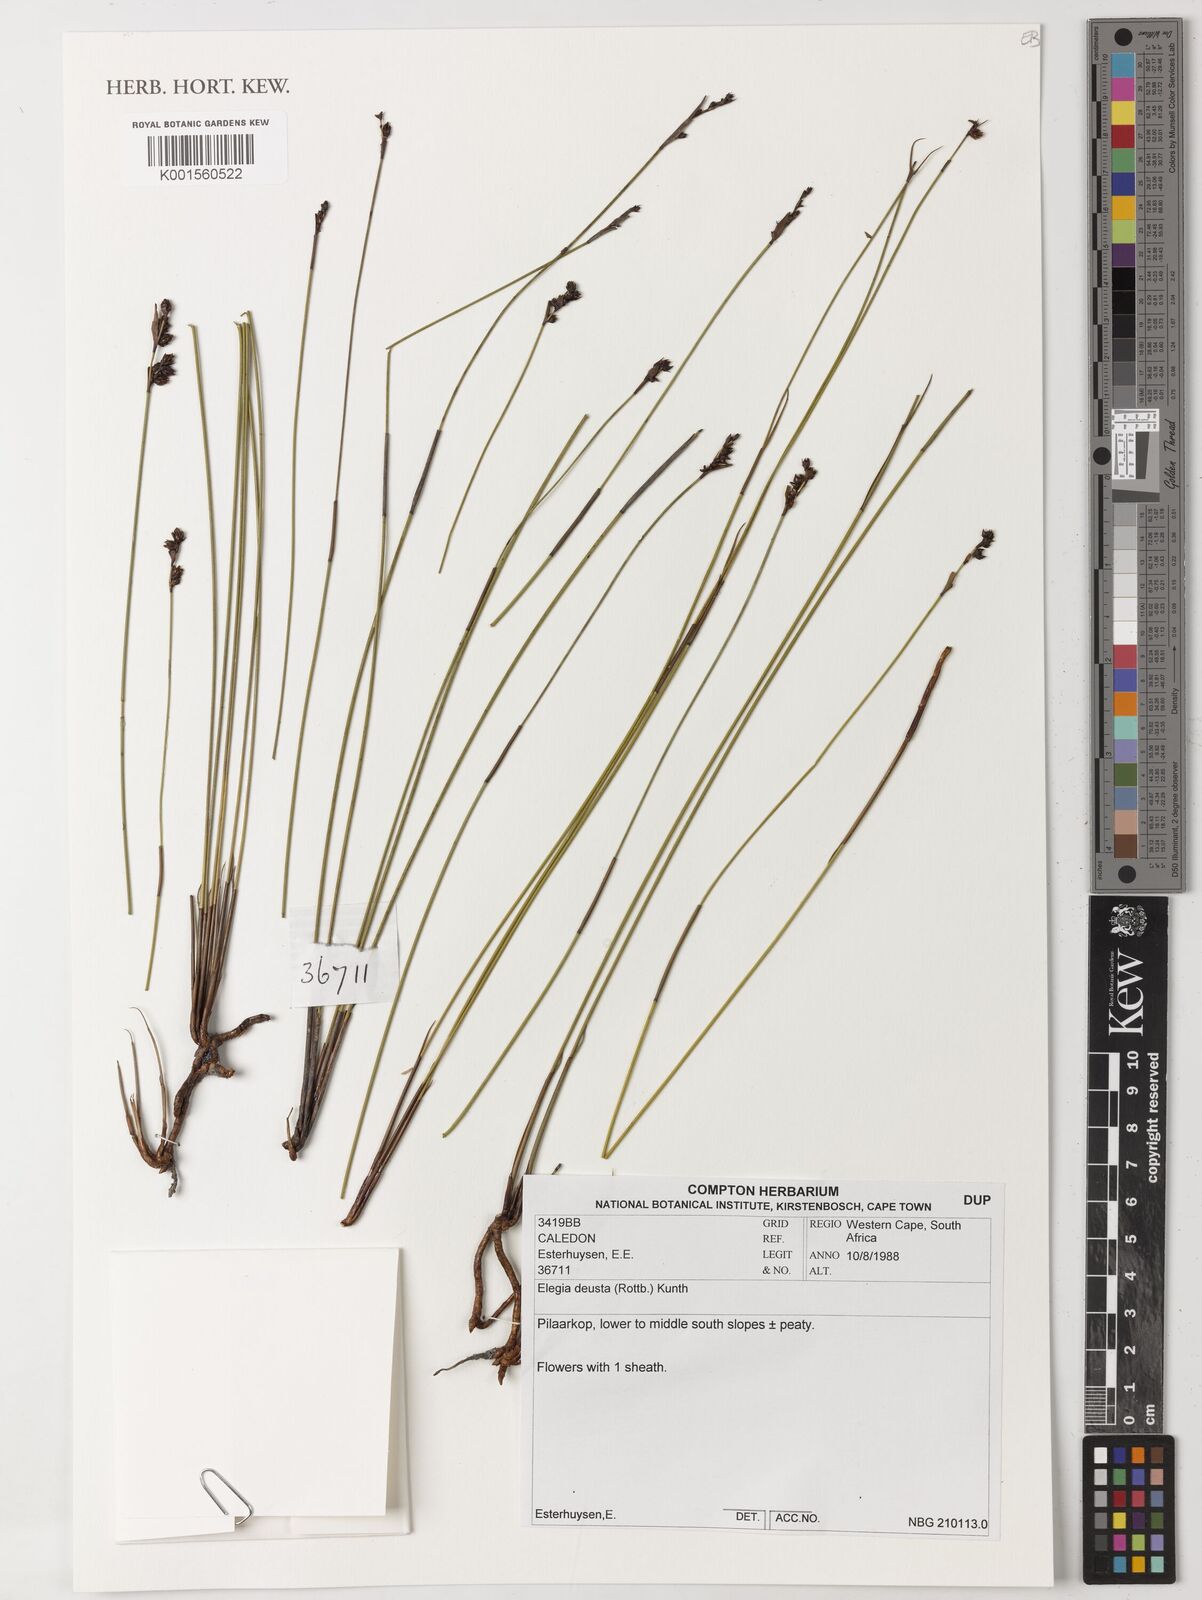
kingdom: Plantae
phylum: Tracheophyta
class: Liliopsida
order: Poales
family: Restionaceae
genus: Elegia
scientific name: Elegia deusta
